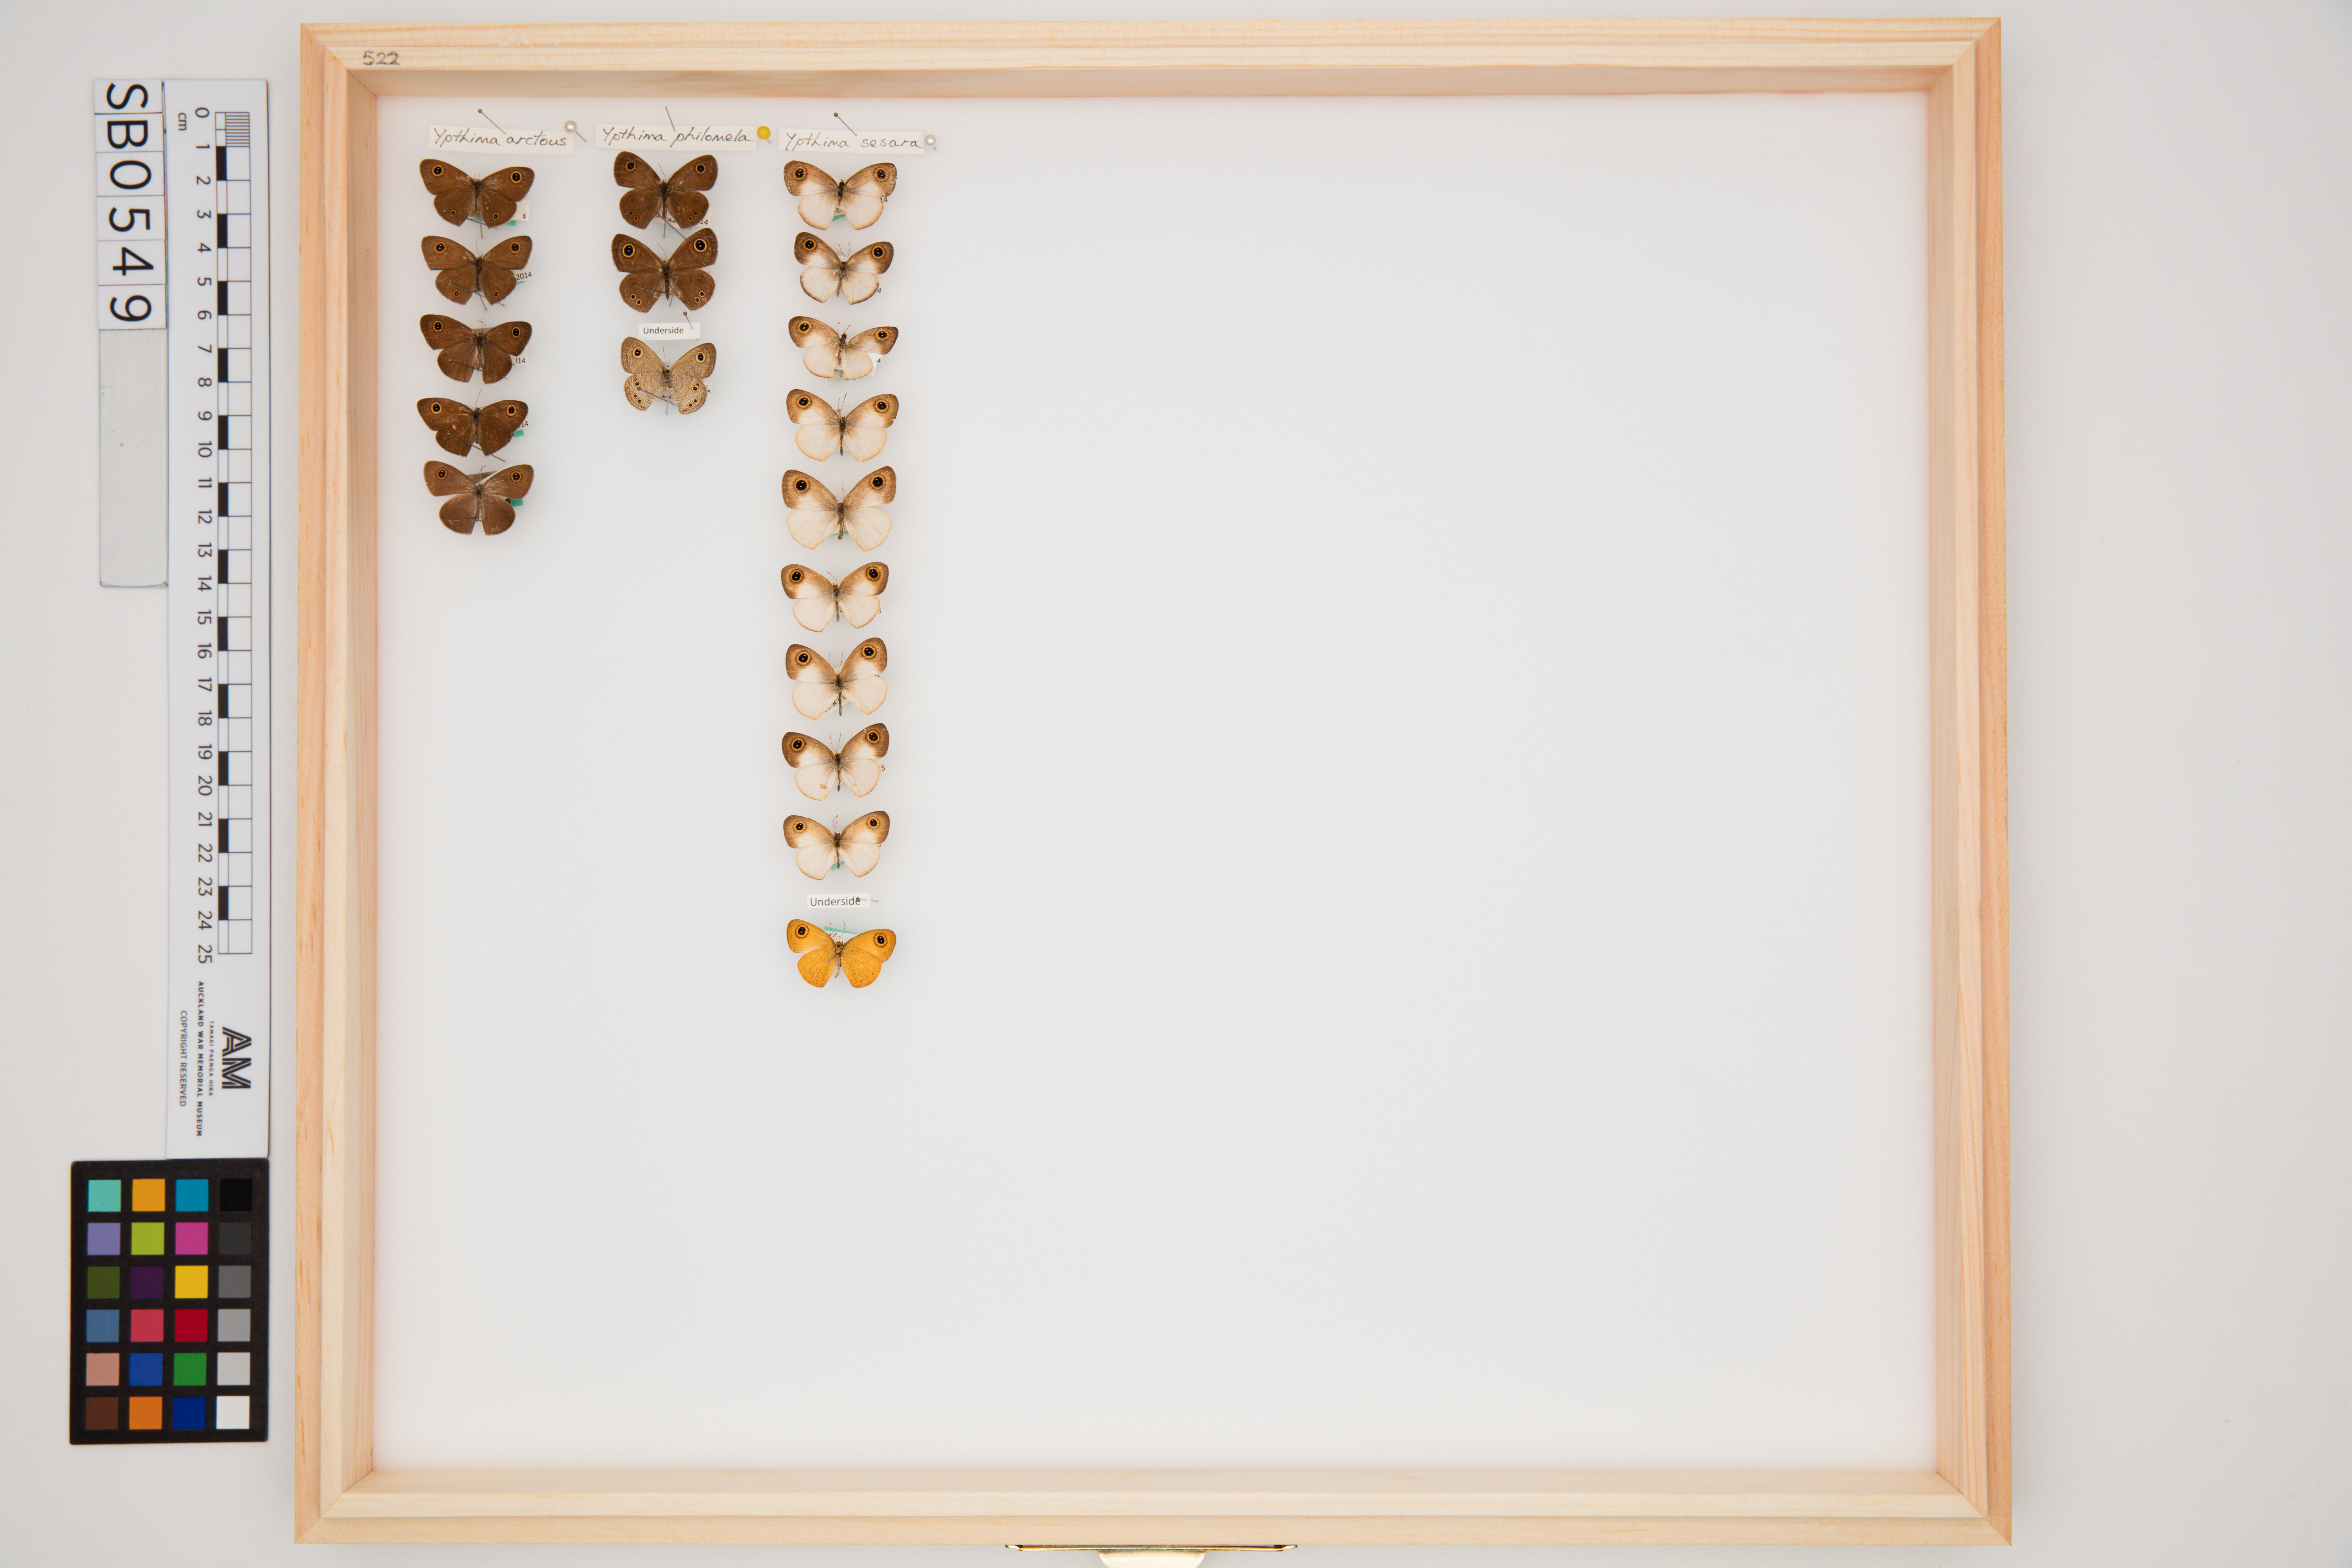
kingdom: Animalia
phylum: Arthropoda
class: Insecta
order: Lepidoptera
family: Nymphalidae
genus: Ypthima
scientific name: Ypthima sesara
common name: Common fijian ringlet
